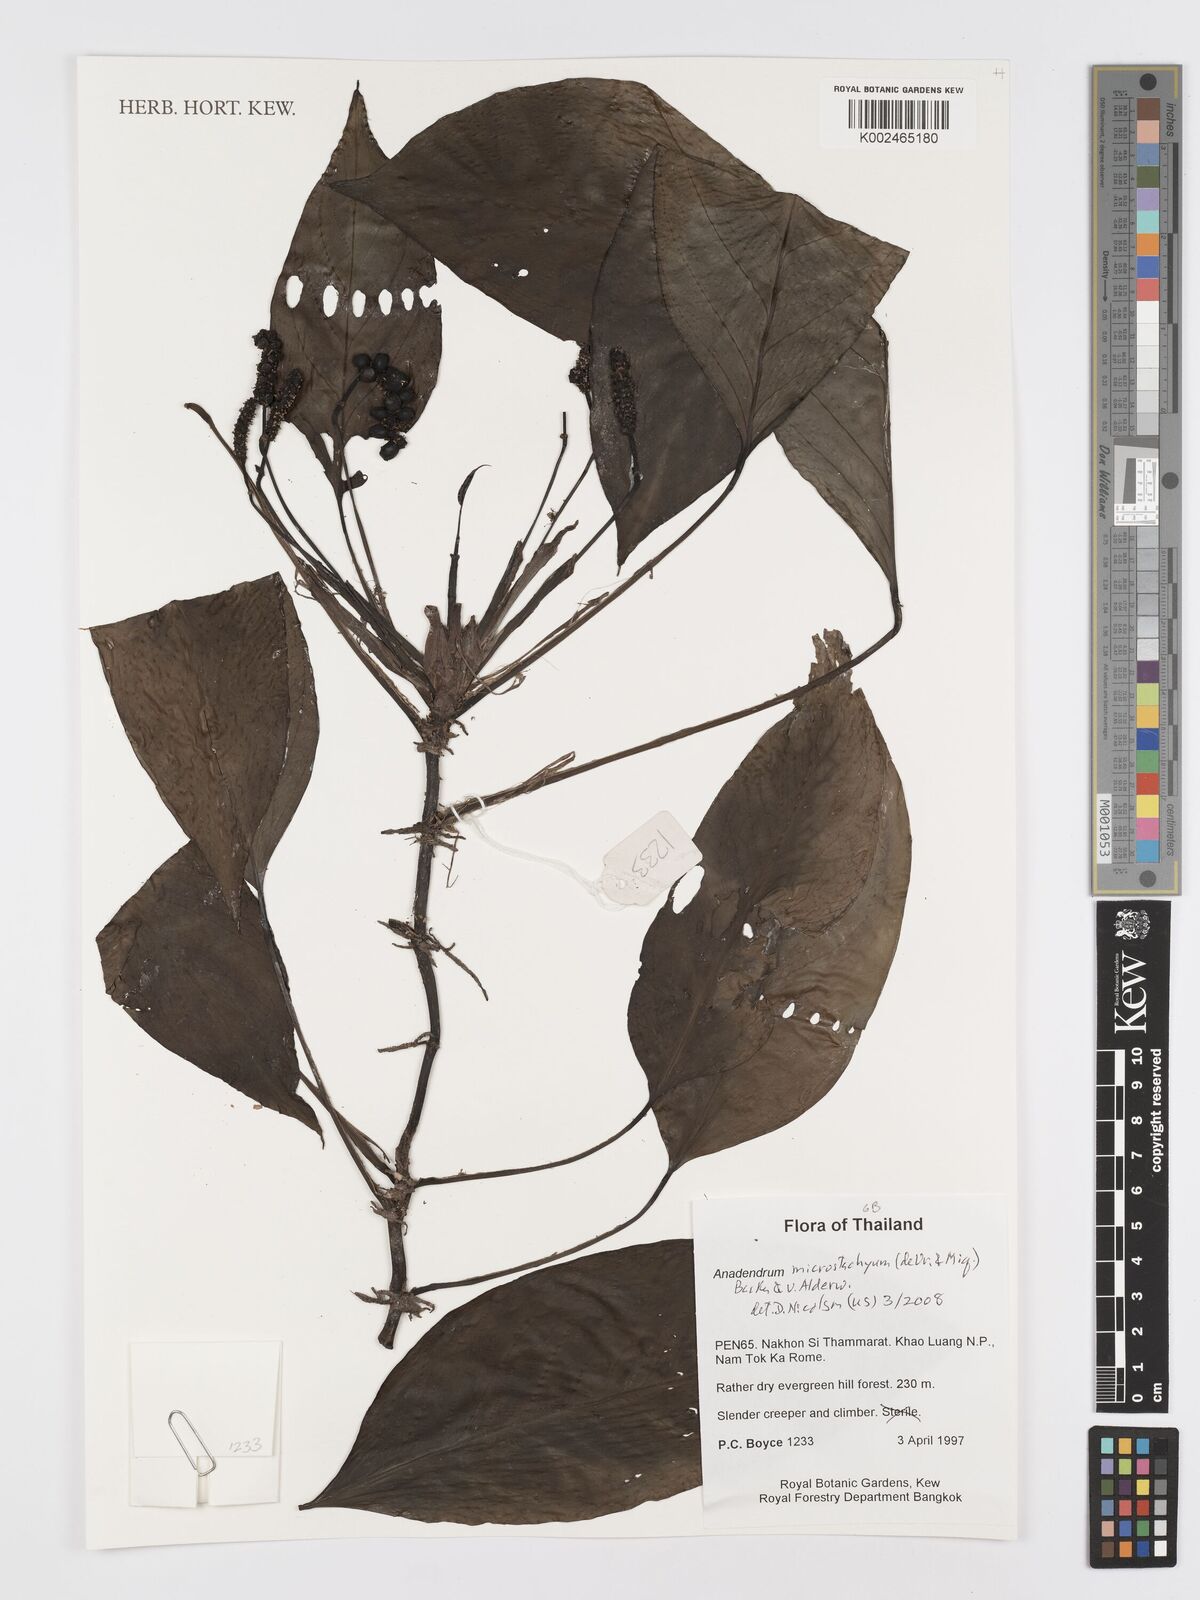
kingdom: Plantae
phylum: Tracheophyta
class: Liliopsida
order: Alismatales
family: Araceae
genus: Anadendrum
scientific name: Anadendrum microstachyum
